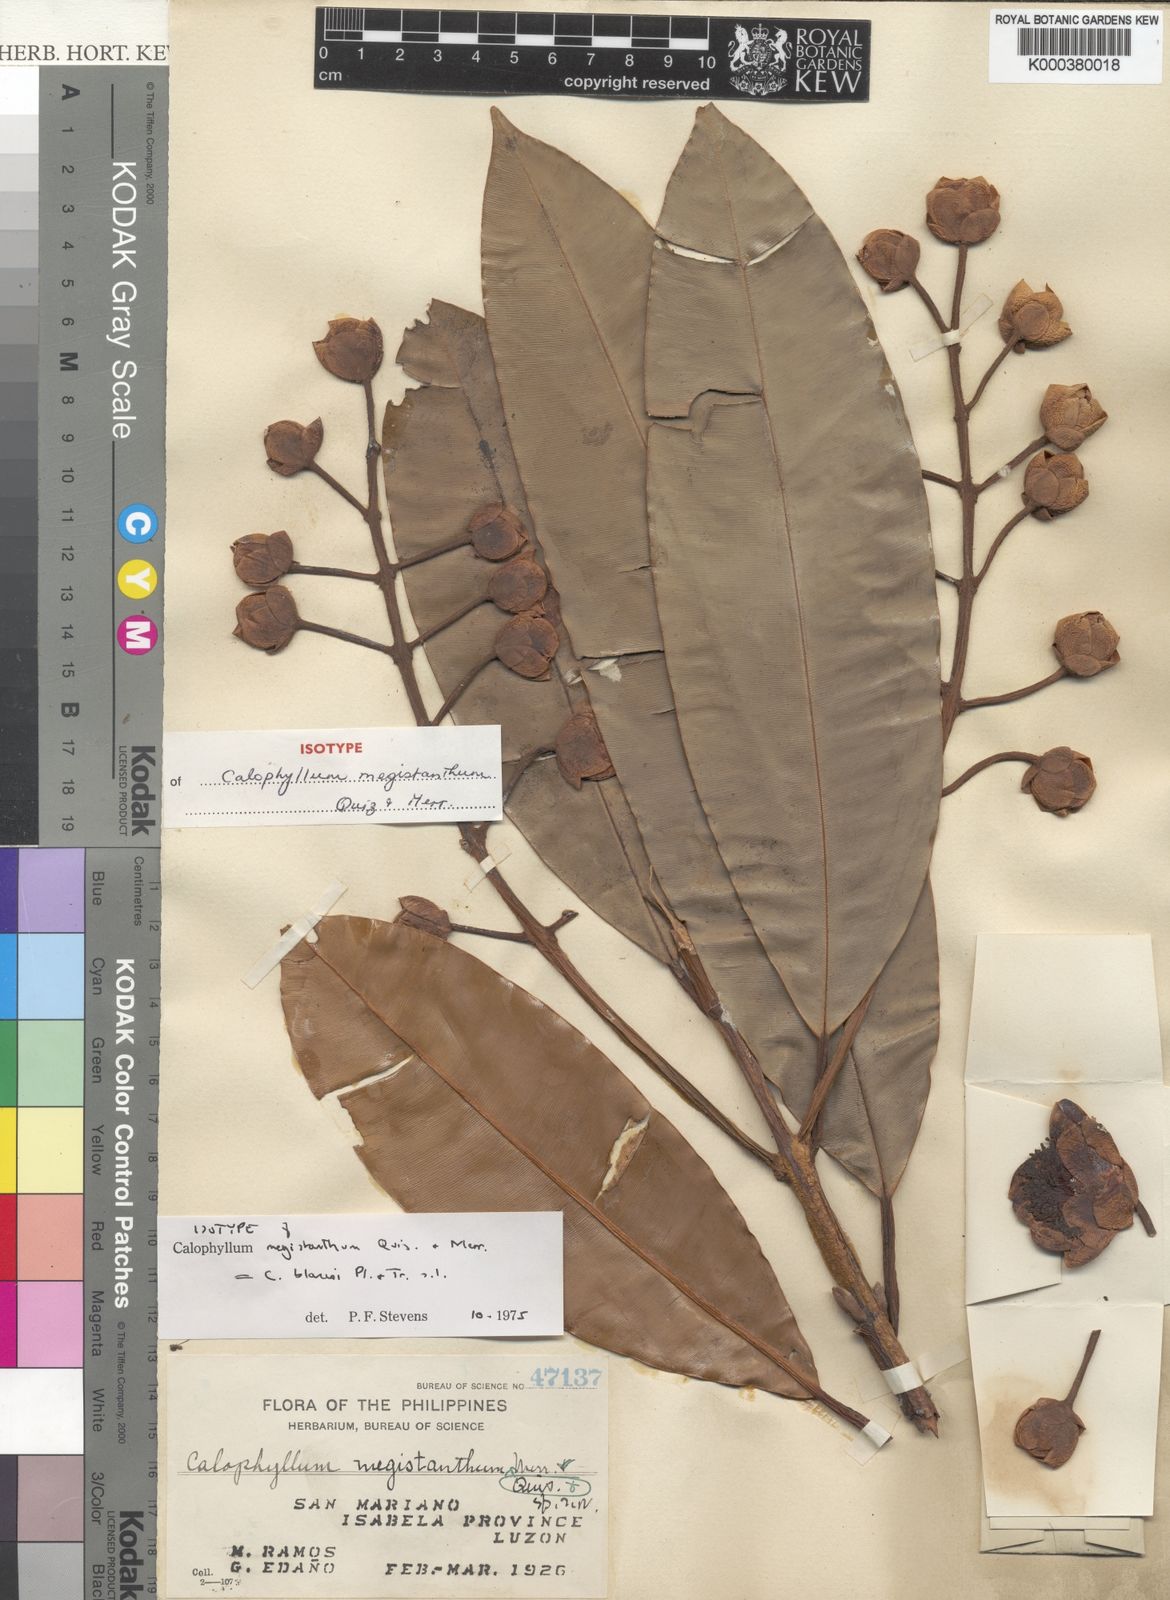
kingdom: Plantae
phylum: Tracheophyta
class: Magnoliopsida
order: Malpighiales
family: Calophyllaceae
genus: Calophyllum
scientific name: Calophyllum blancoi
